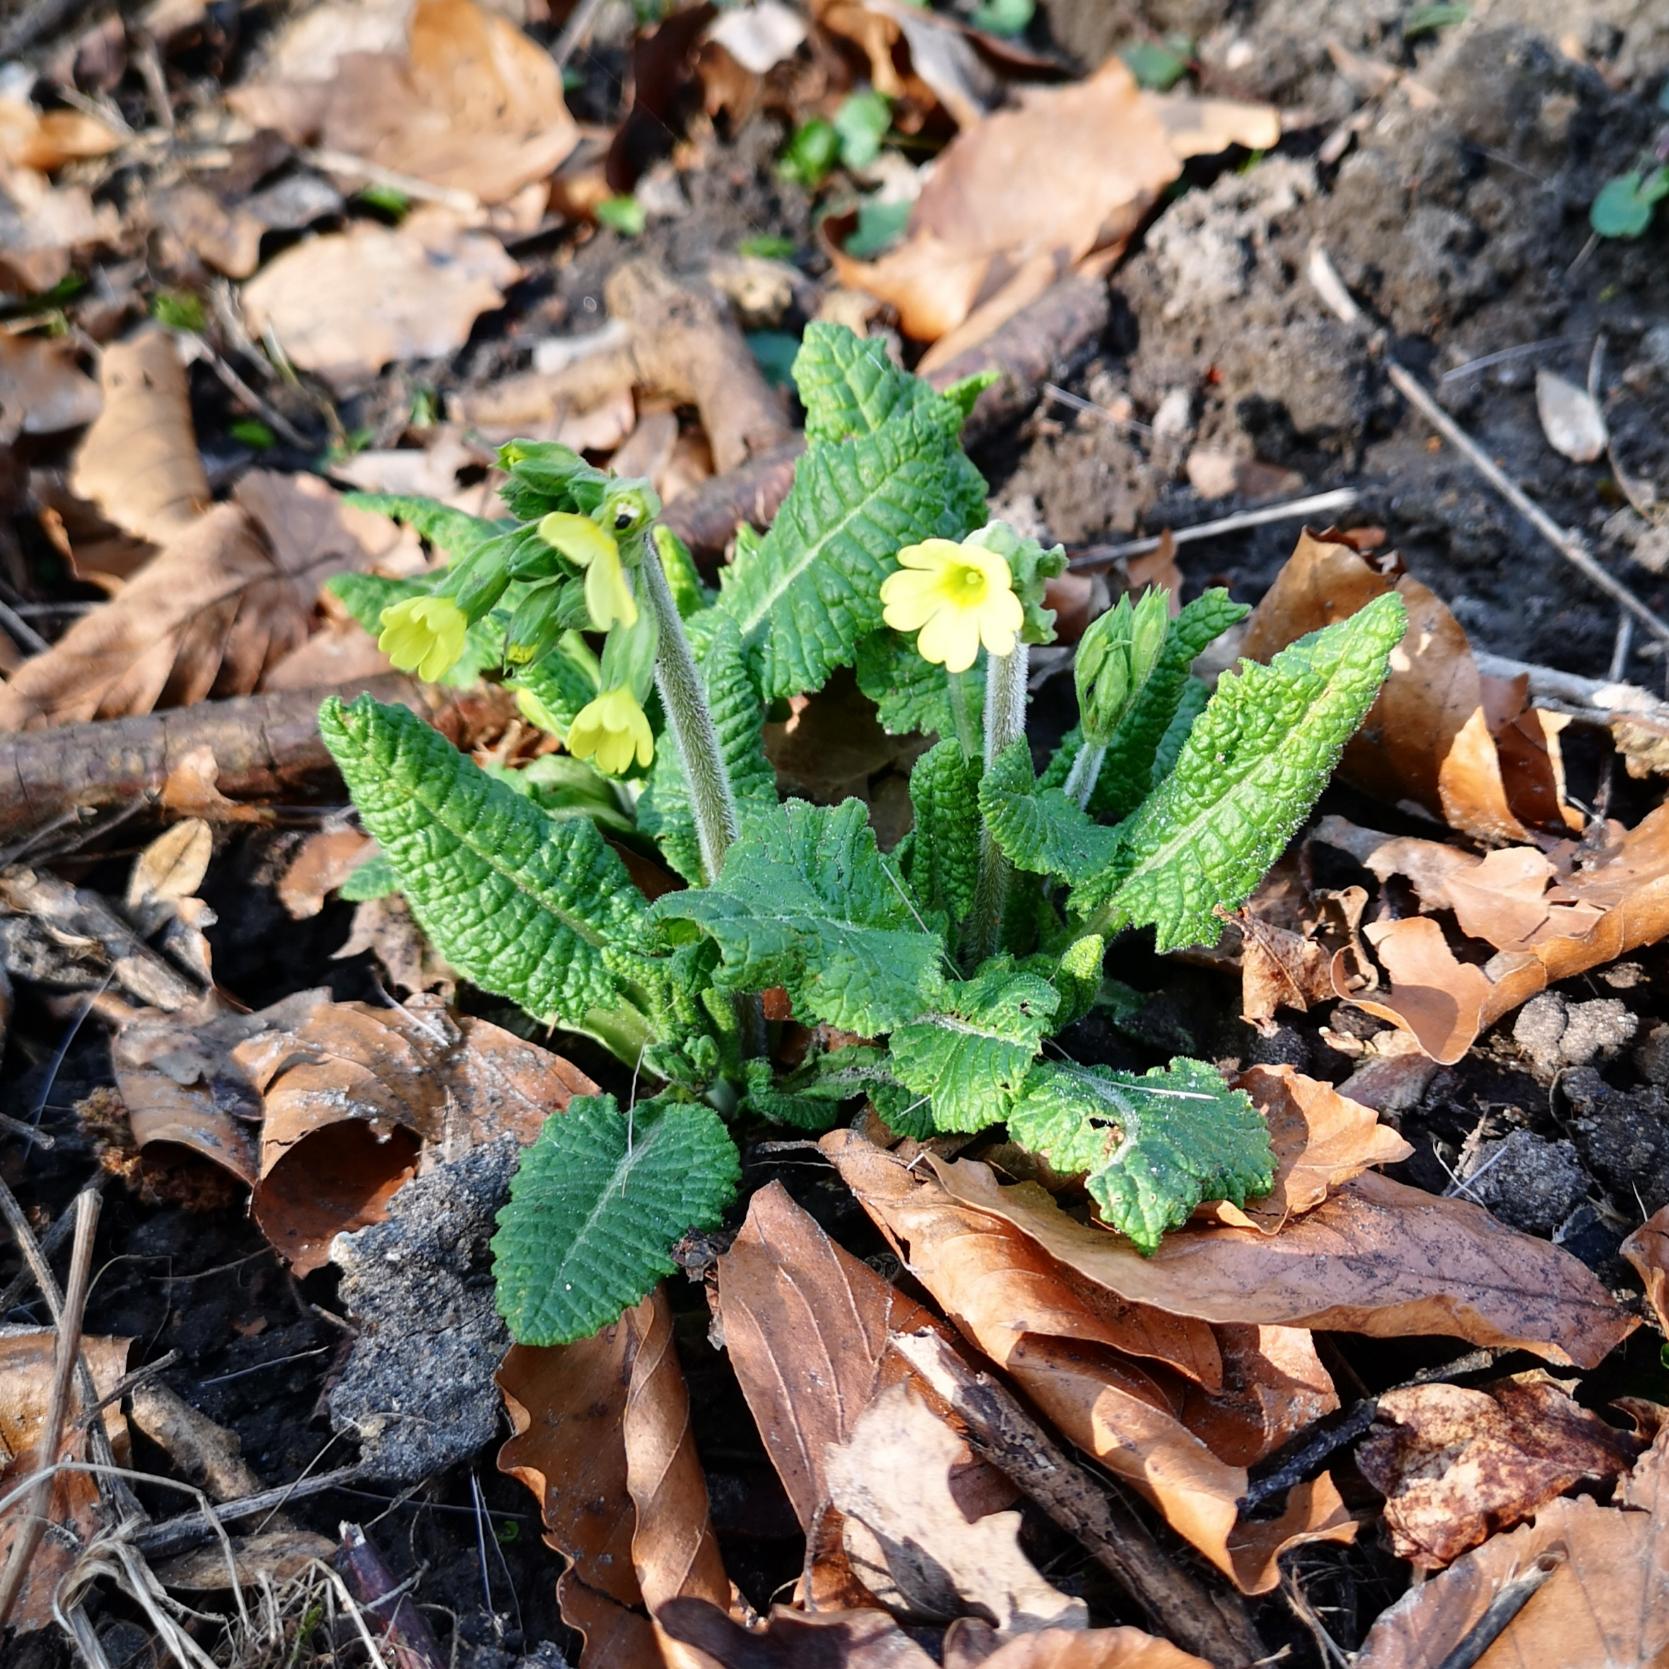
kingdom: Plantae
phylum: Tracheophyta
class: Magnoliopsida
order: Ericales
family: Primulaceae
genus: Primula
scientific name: Primula elatior
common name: Fladkravet kodriver
